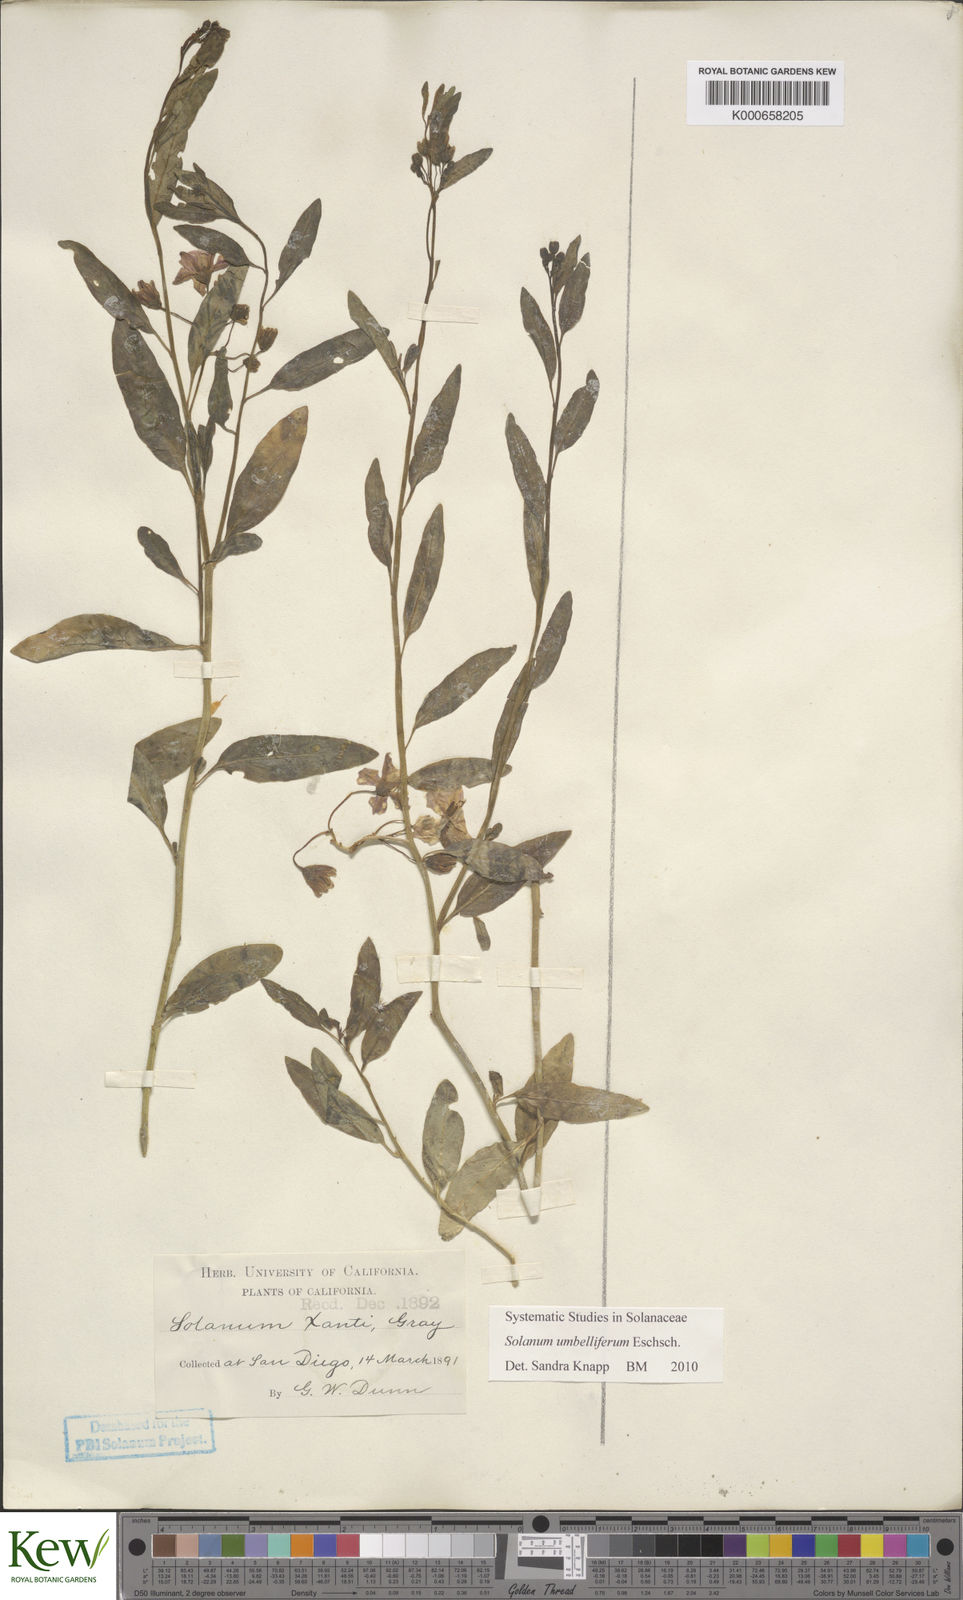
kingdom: Plantae
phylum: Tracheophyta
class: Magnoliopsida
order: Solanales
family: Solanaceae
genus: Solanum
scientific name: Solanum umbelliferum
